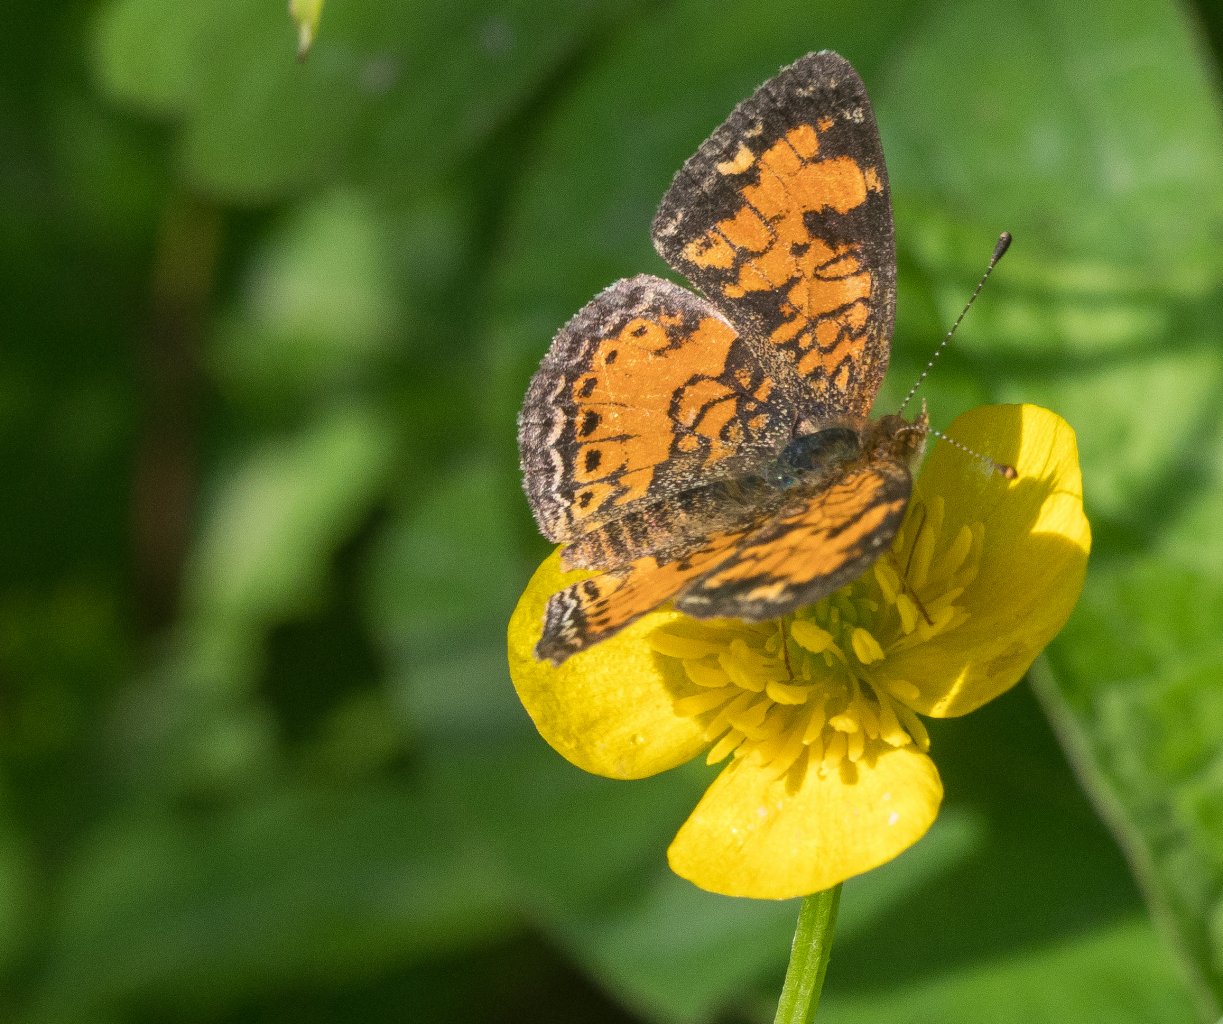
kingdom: Animalia
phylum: Arthropoda
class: Insecta
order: Lepidoptera
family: Nymphalidae
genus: Phyciodes
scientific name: Phyciodes tharos
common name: Pearl Crescent
